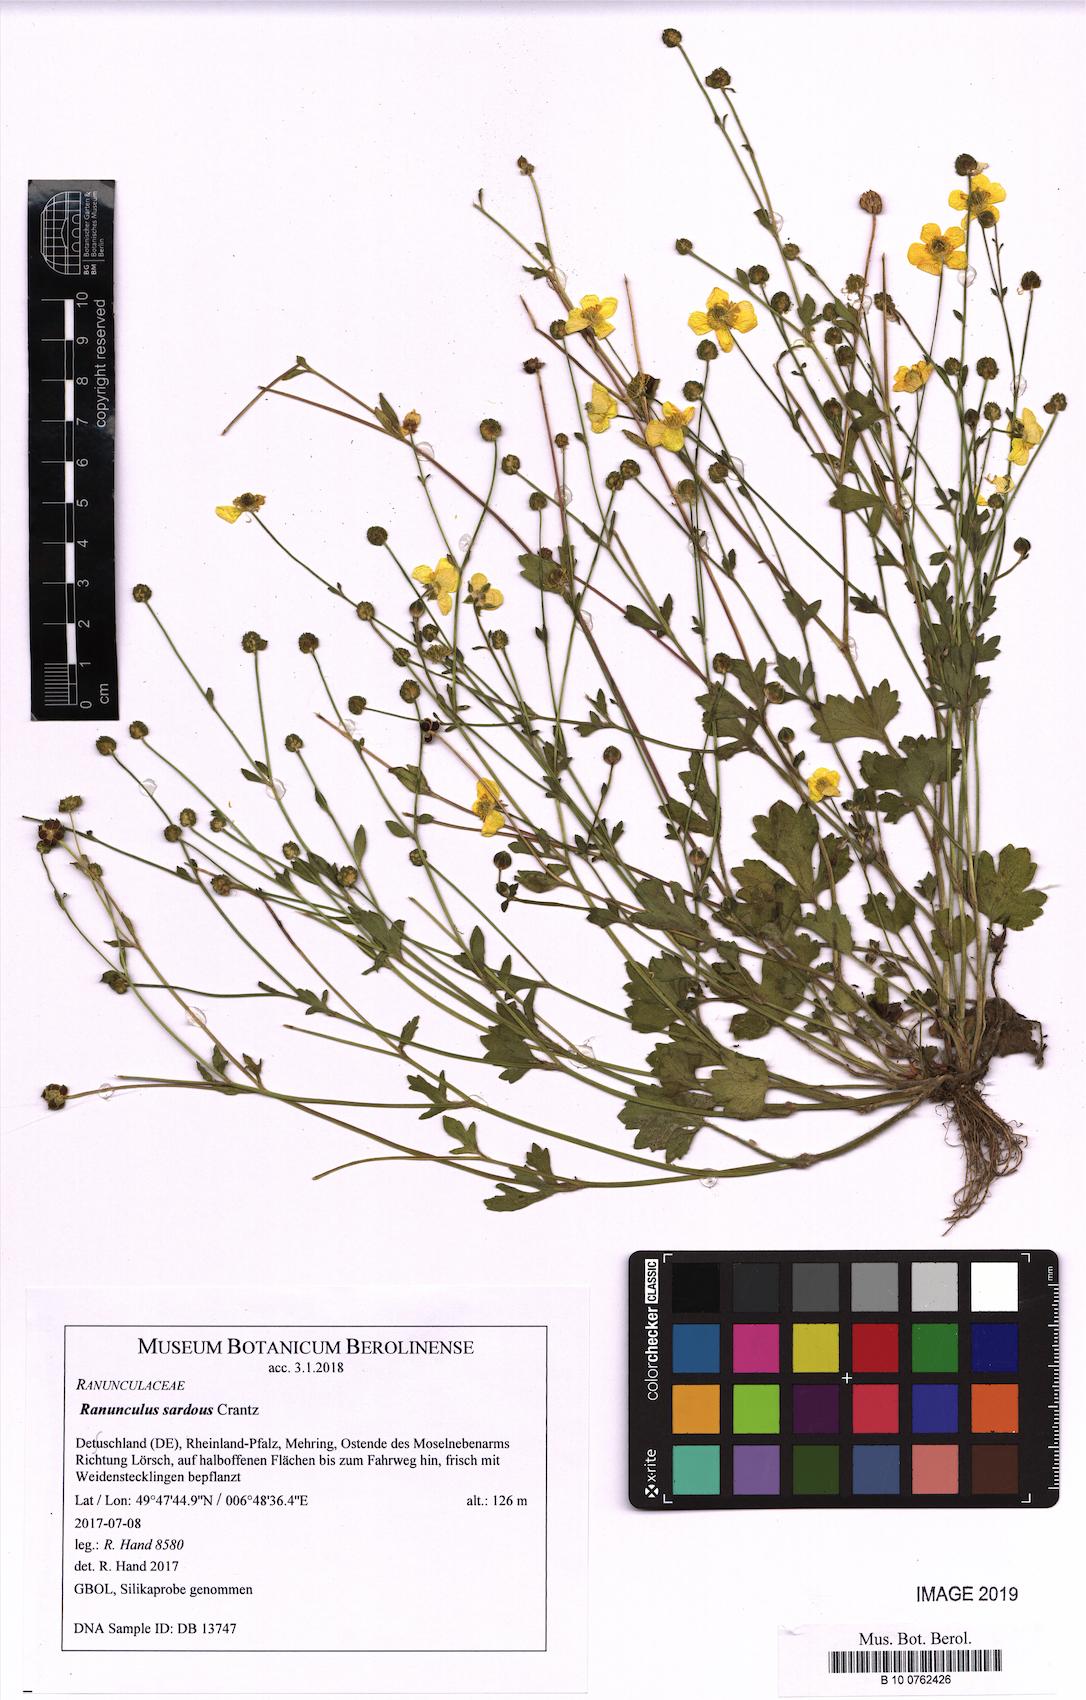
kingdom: Plantae
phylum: Tracheophyta
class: Magnoliopsida
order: Ranunculales
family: Ranunculaceae
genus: Ranunculus
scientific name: Ranunculus sardous
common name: Hairy buttercup
